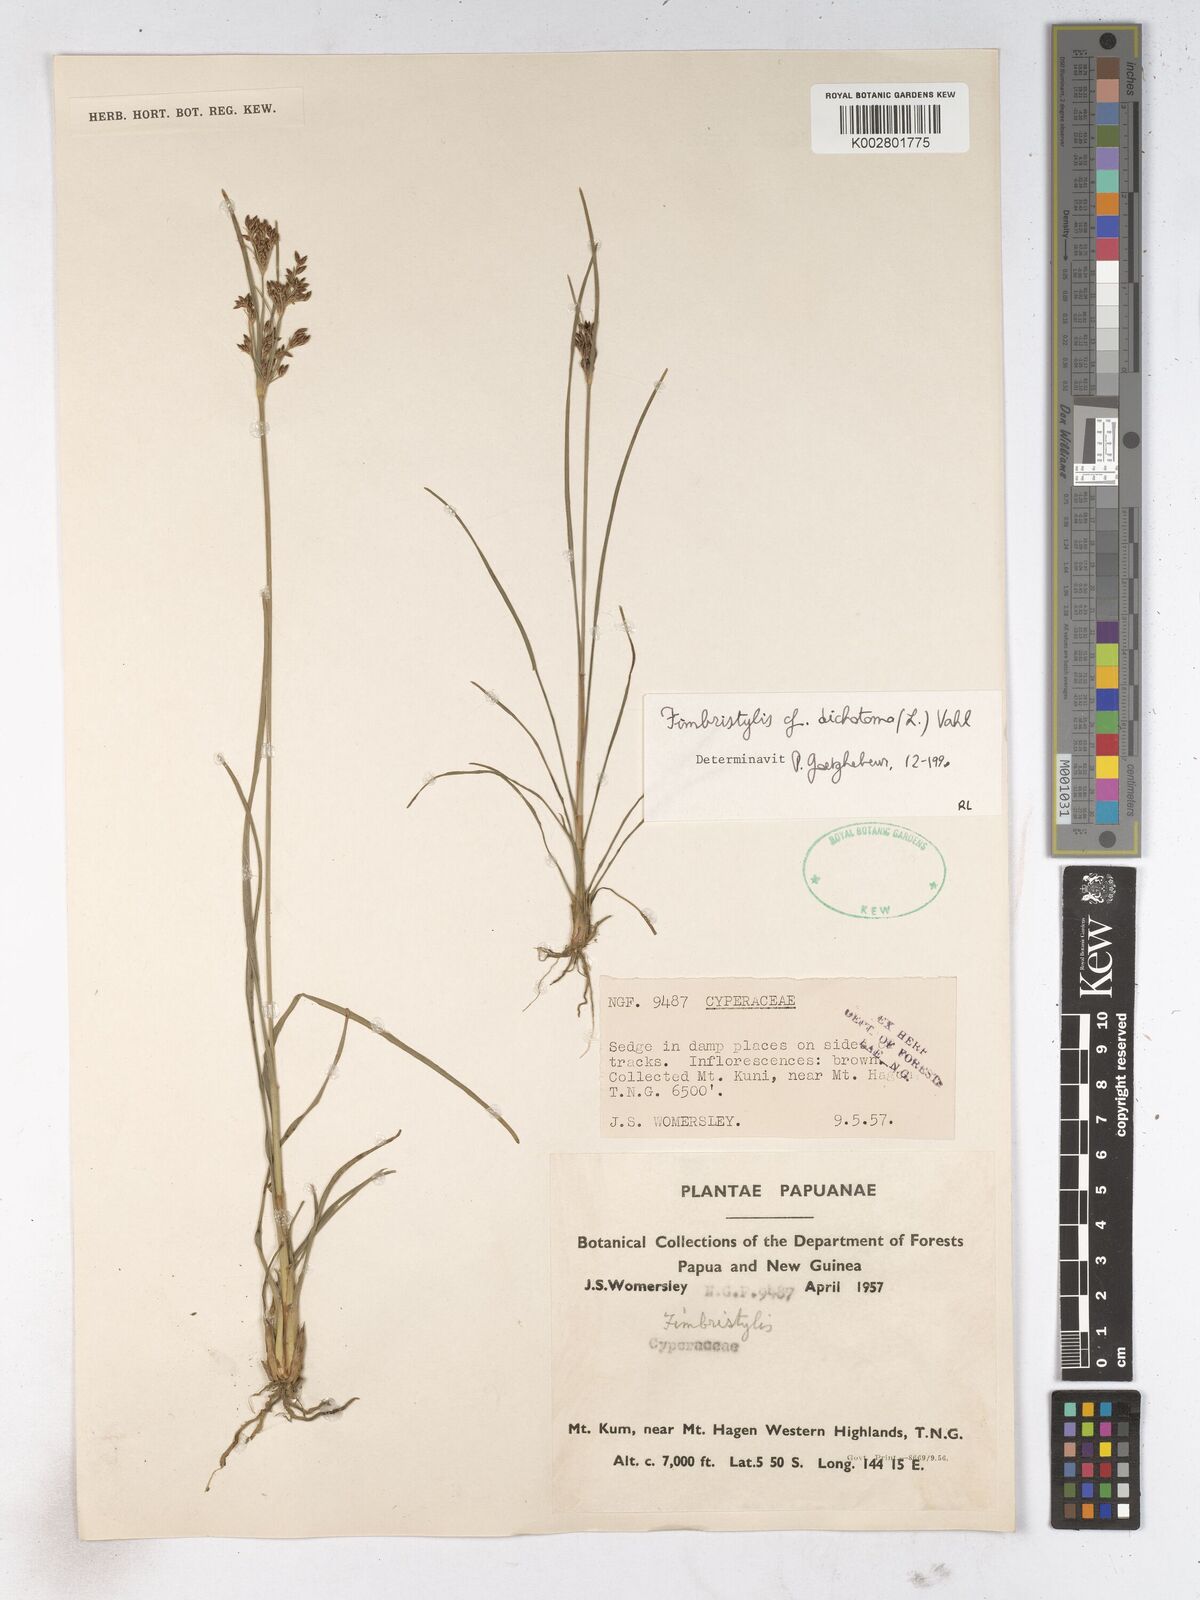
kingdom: Plantae
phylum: Tracheophyta
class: Liliopsida
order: Poales
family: Cyperaceae
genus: Fimbristylis
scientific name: Fimbristylis dichotoma
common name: Forked fimbry
